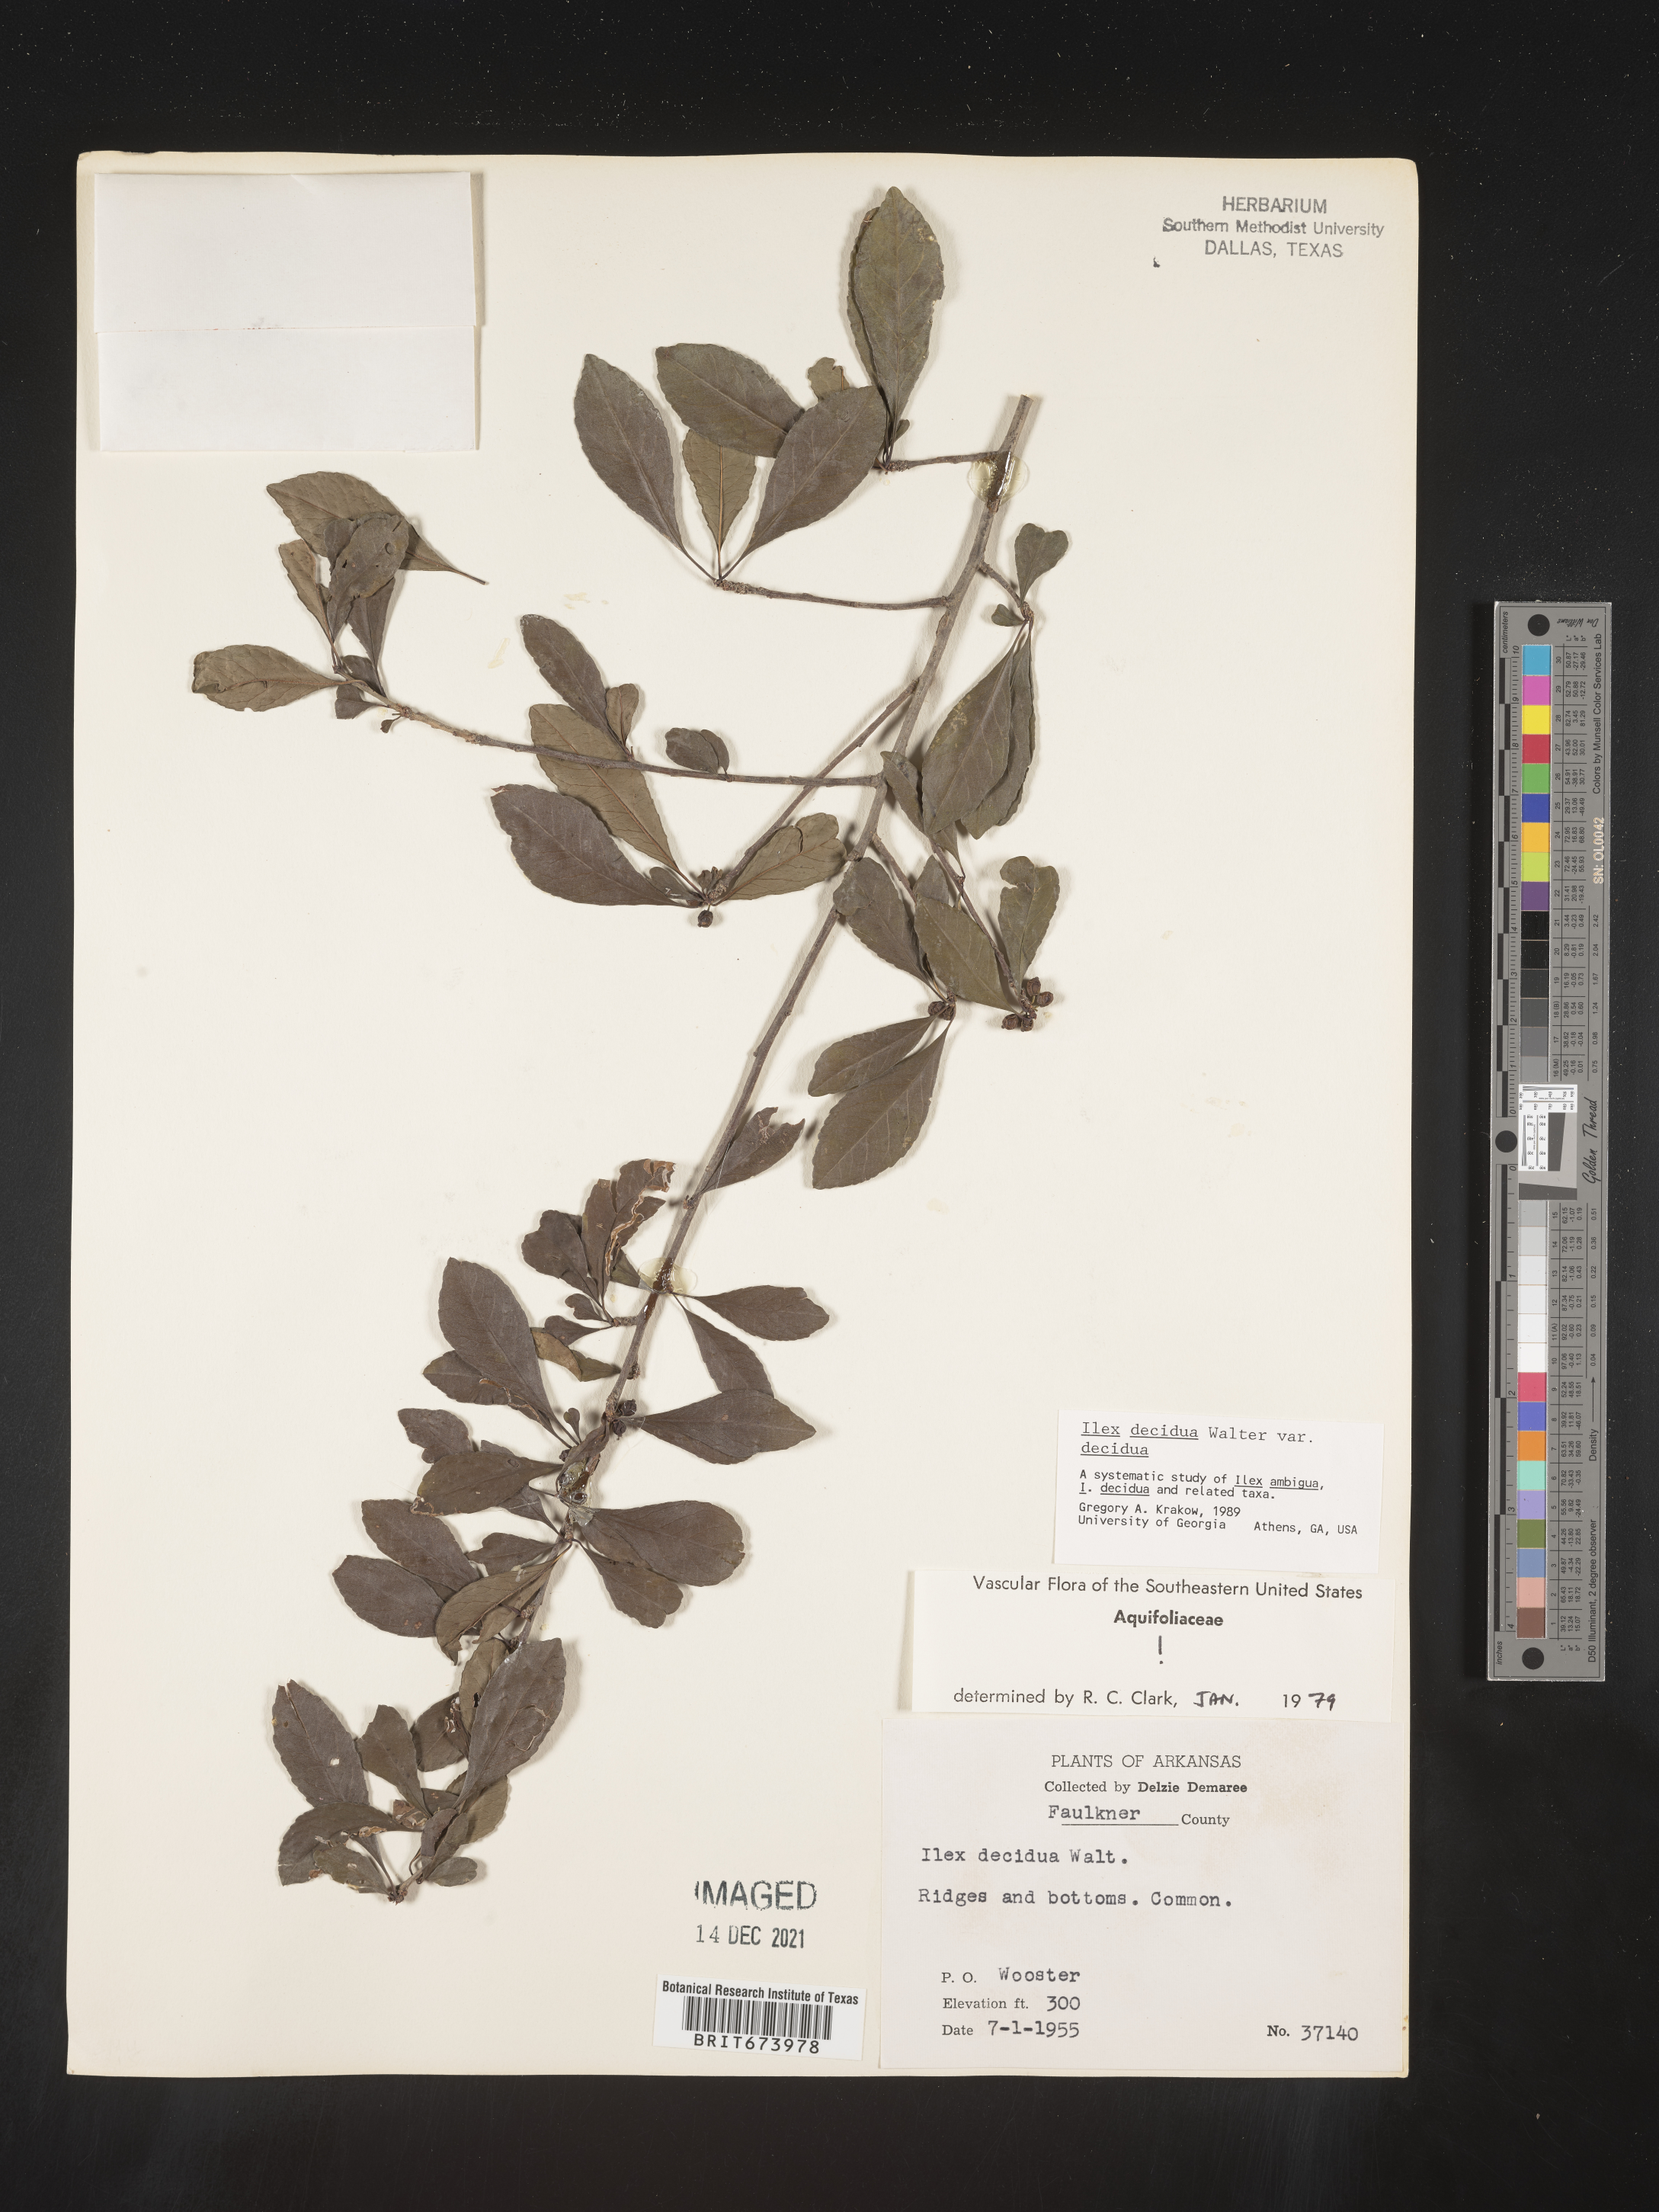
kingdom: Plantae
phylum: Tracheophyta
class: Magnoliopsida
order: Aquifoliales
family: Aquifoliaceae
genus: Ilex
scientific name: Ilex decidua
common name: Possum-haw
